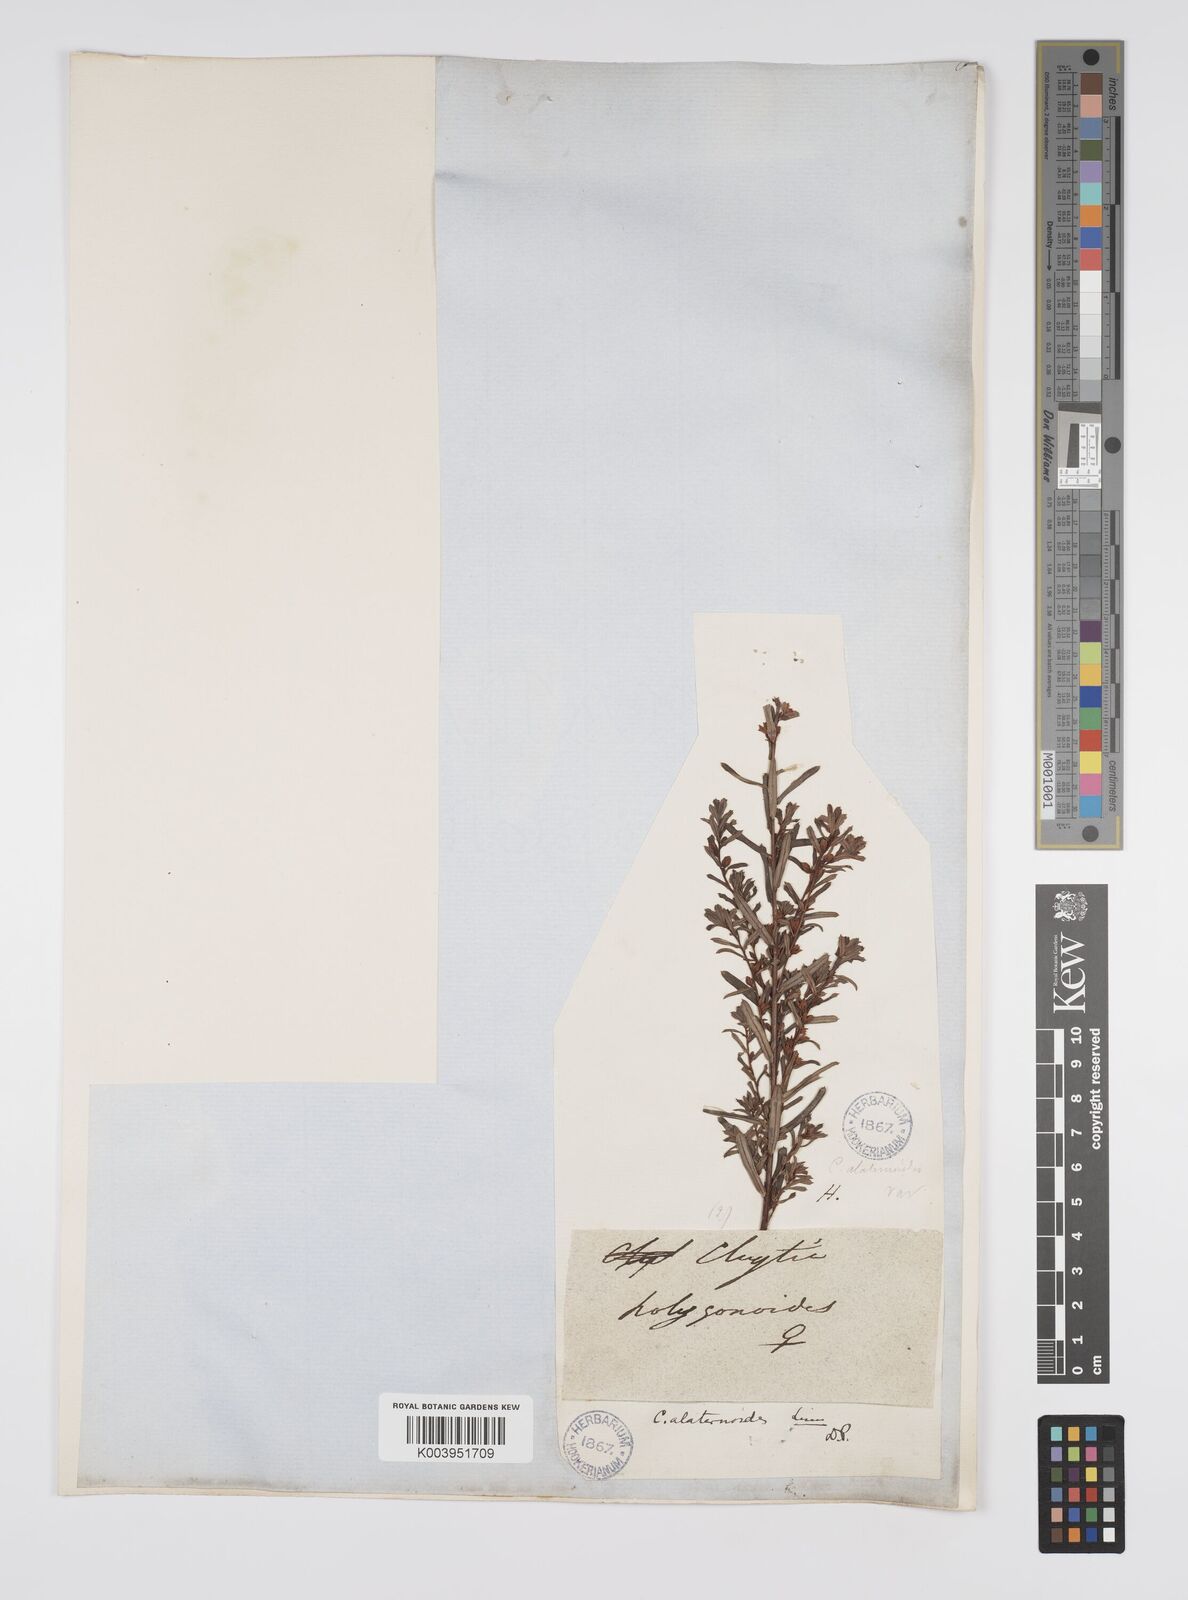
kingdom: Plantae
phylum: Tracheophyta
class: Magnoliopsida
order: Malpighiales
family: Peraceae
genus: Clutia
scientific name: Clutia alaternoides
